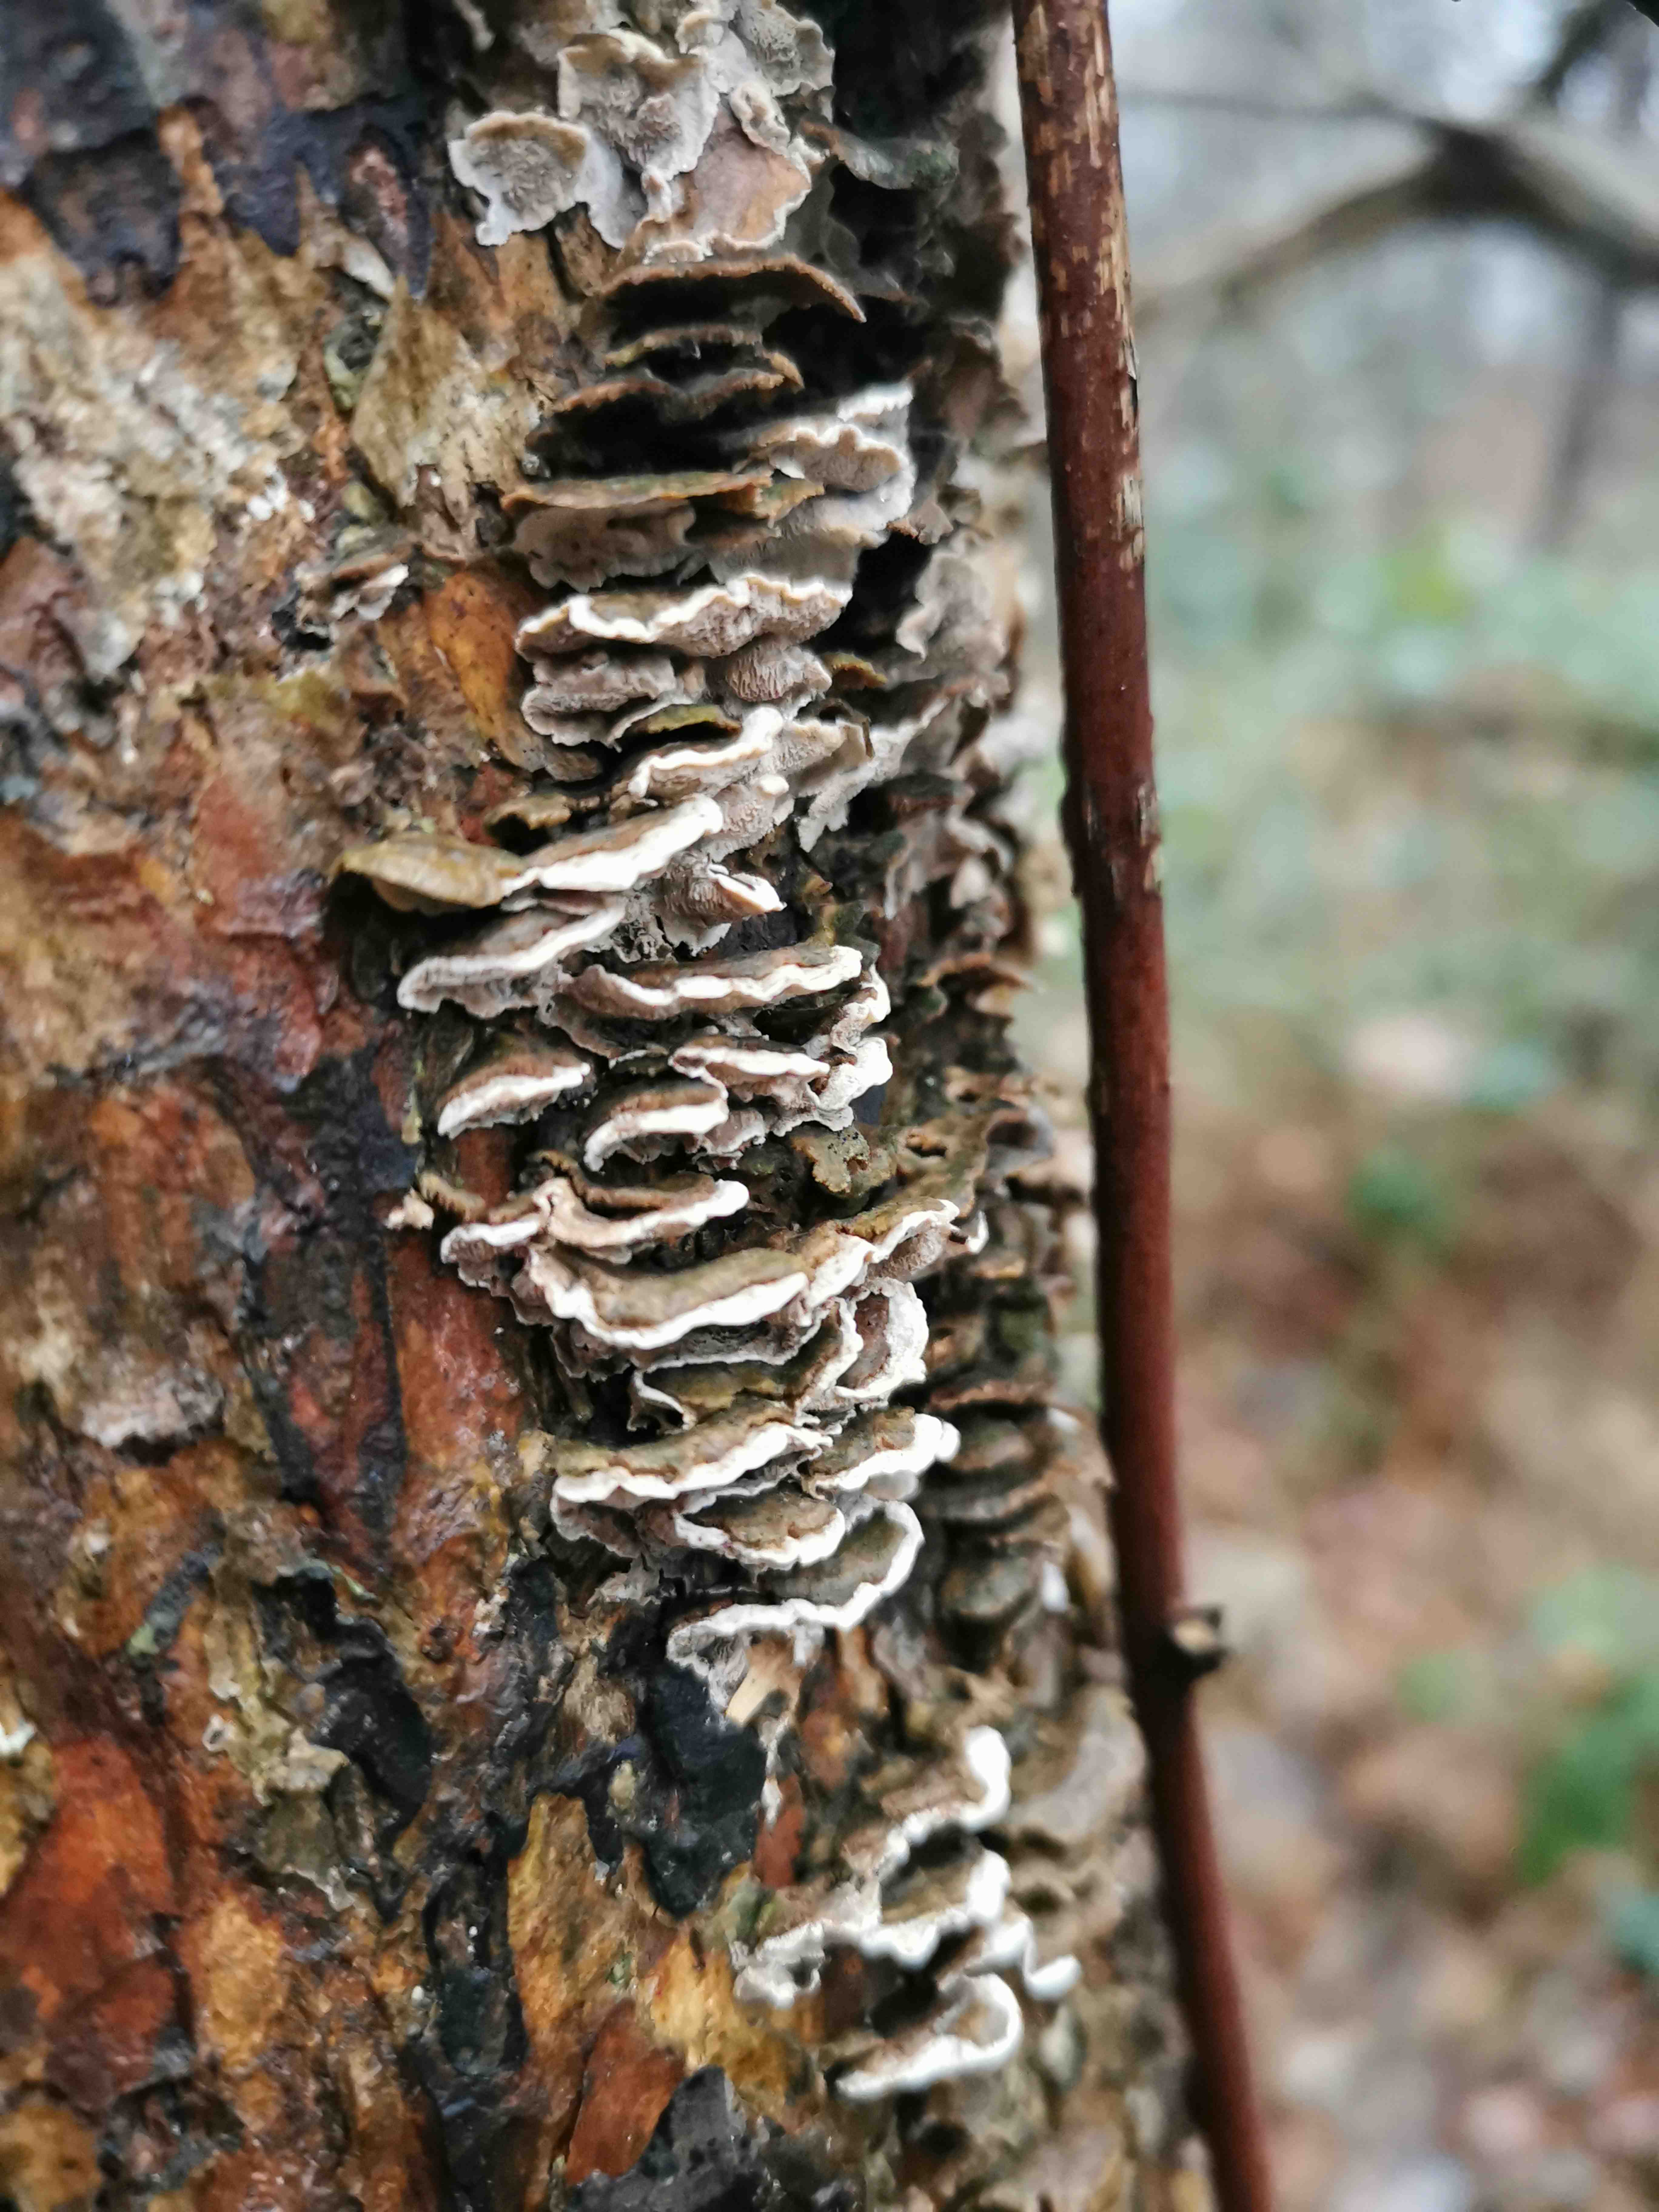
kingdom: Fungi
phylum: Basidiomycota
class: Agaricomycetes
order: Polyporales
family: Incrustoporiaceae
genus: Skeletocutis
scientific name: Skeletocutis carneogrisea
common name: rødgrå krystalporesvamp
